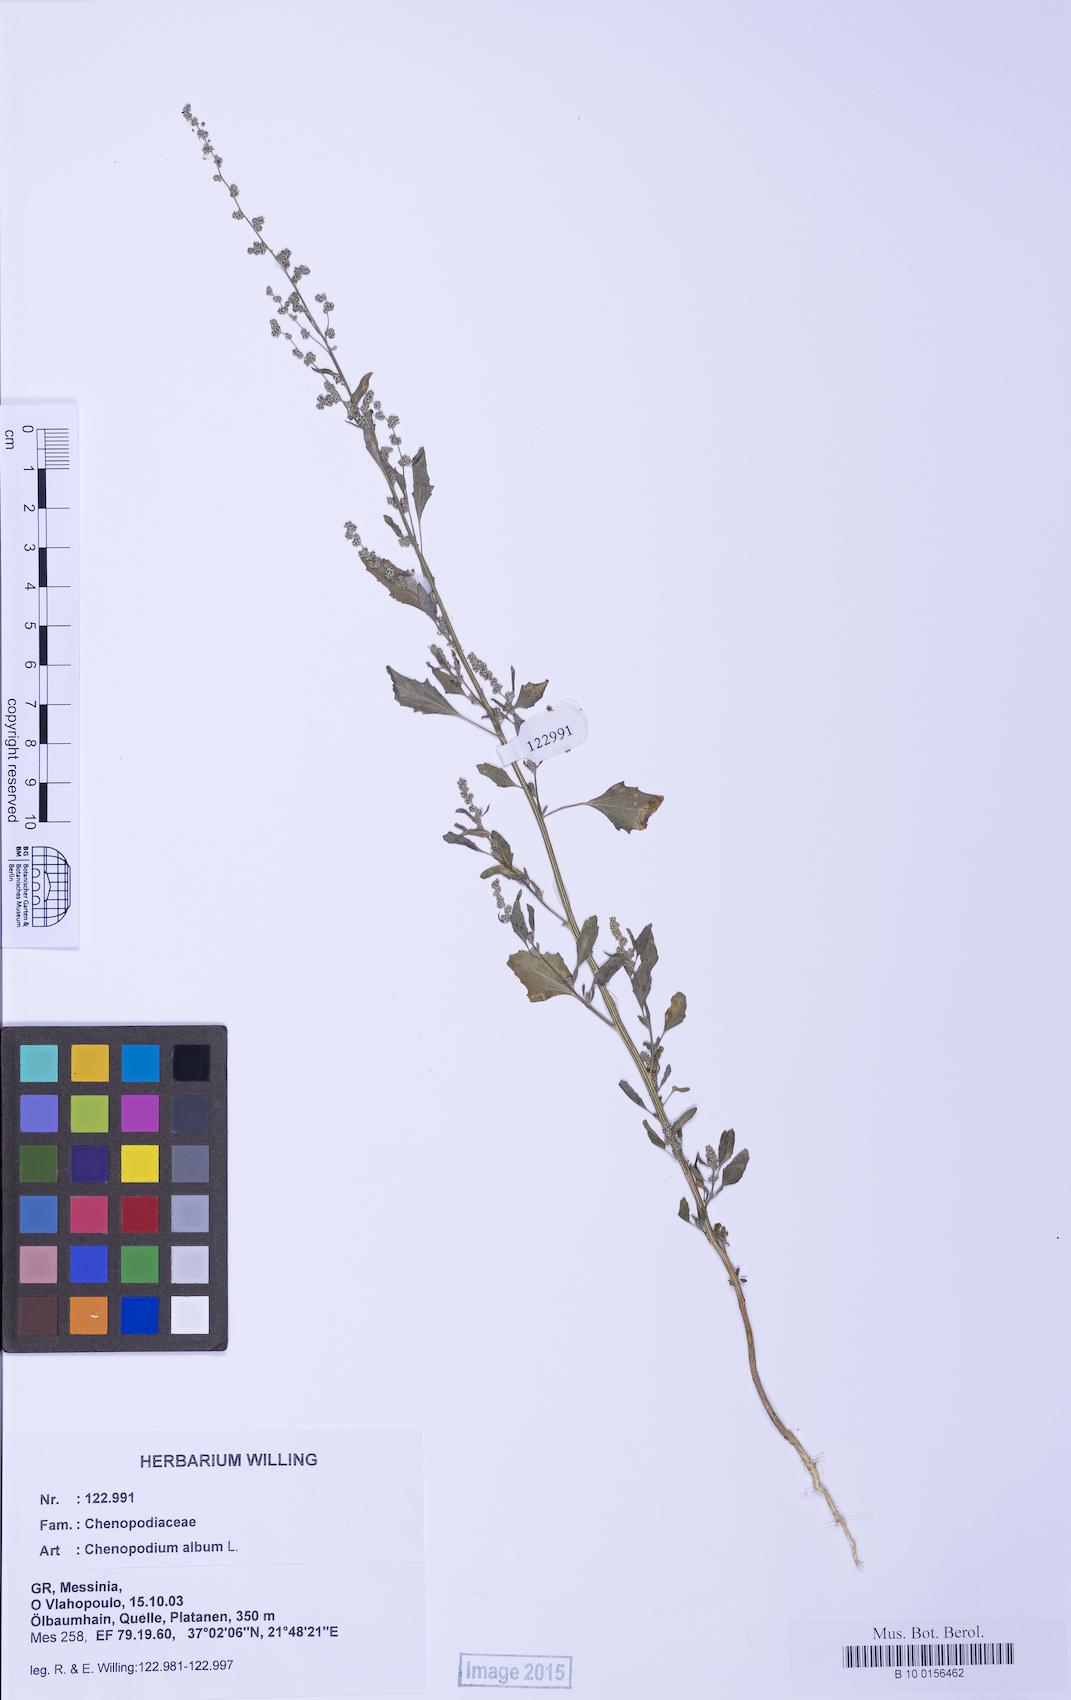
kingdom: Plantae
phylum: Tracheophyta
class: Magnoliopsida
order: Caryophyllales
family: Amaranthaceae
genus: Chenopodium
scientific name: Chenopodium album
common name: Fat-hen
